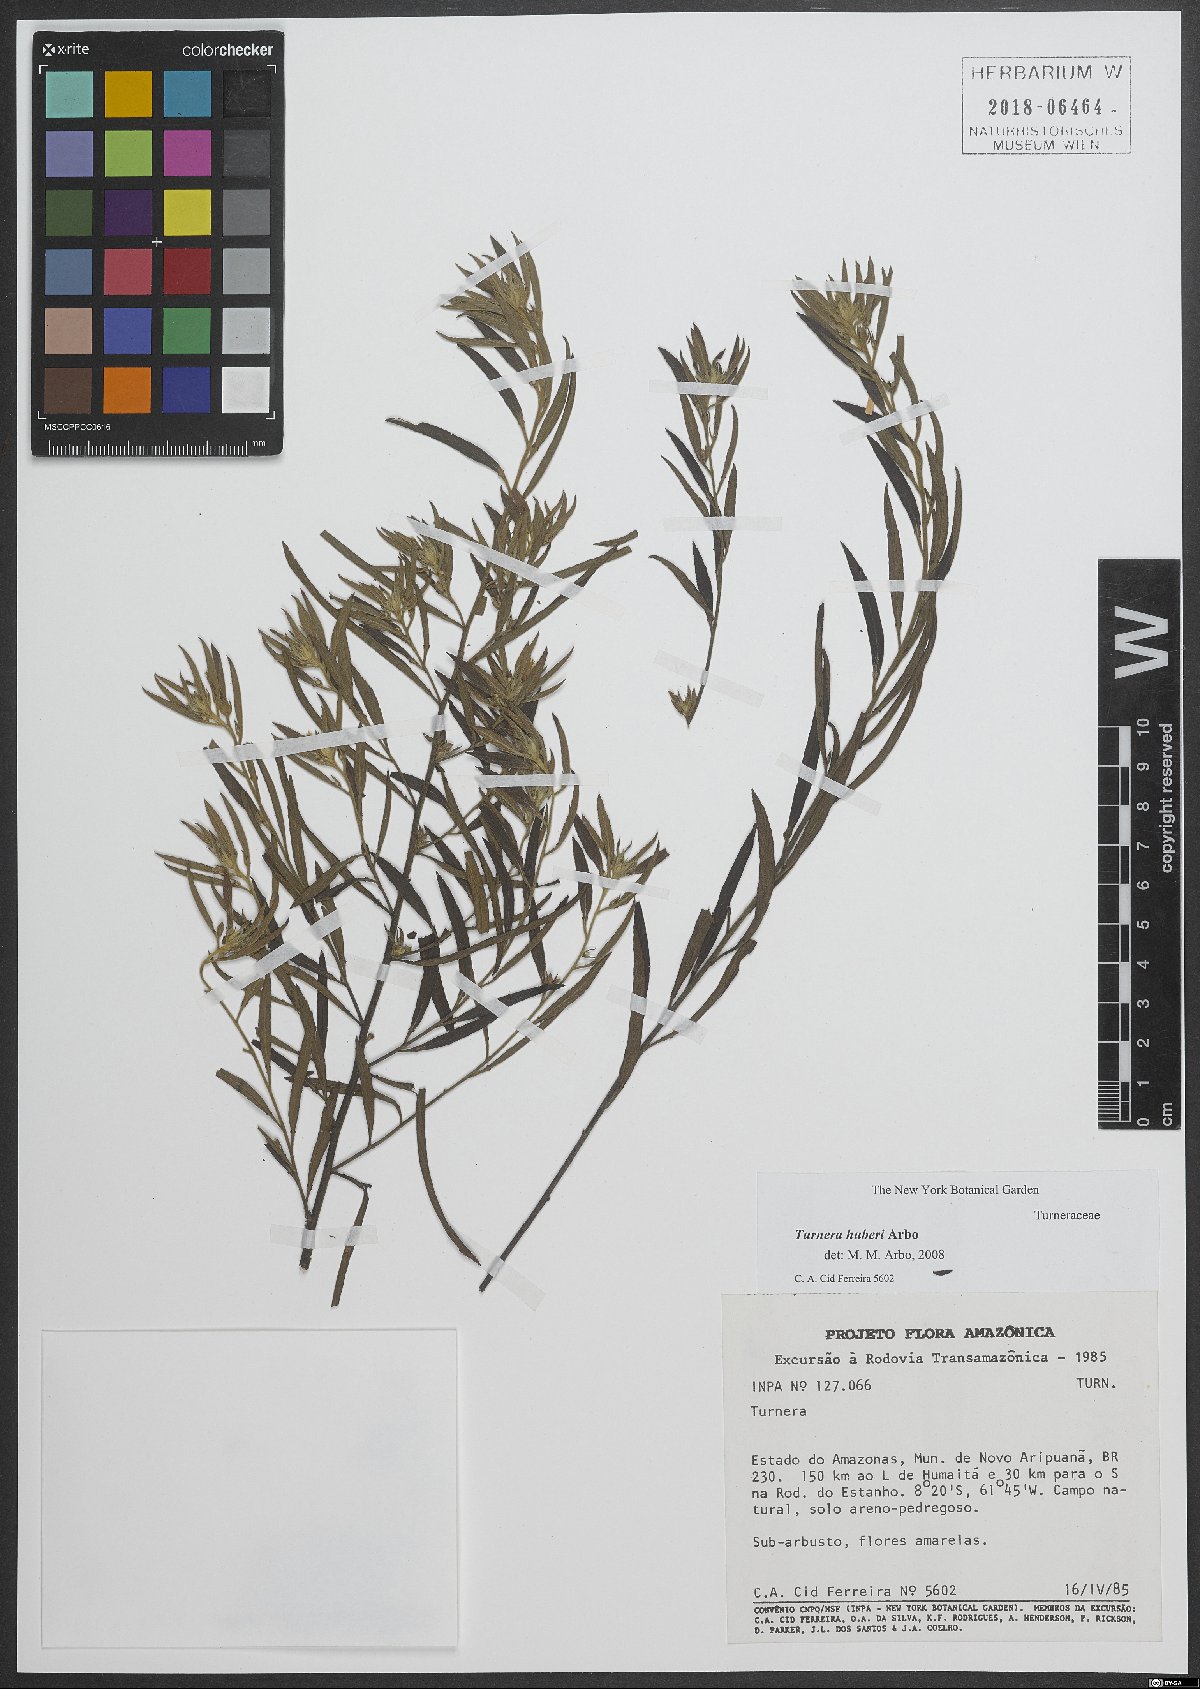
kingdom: Plantae
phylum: Tracheophyta
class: Magnoliopsida
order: Malpighiales
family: Turneraceae
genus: Turnera
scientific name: Turnera huberi
